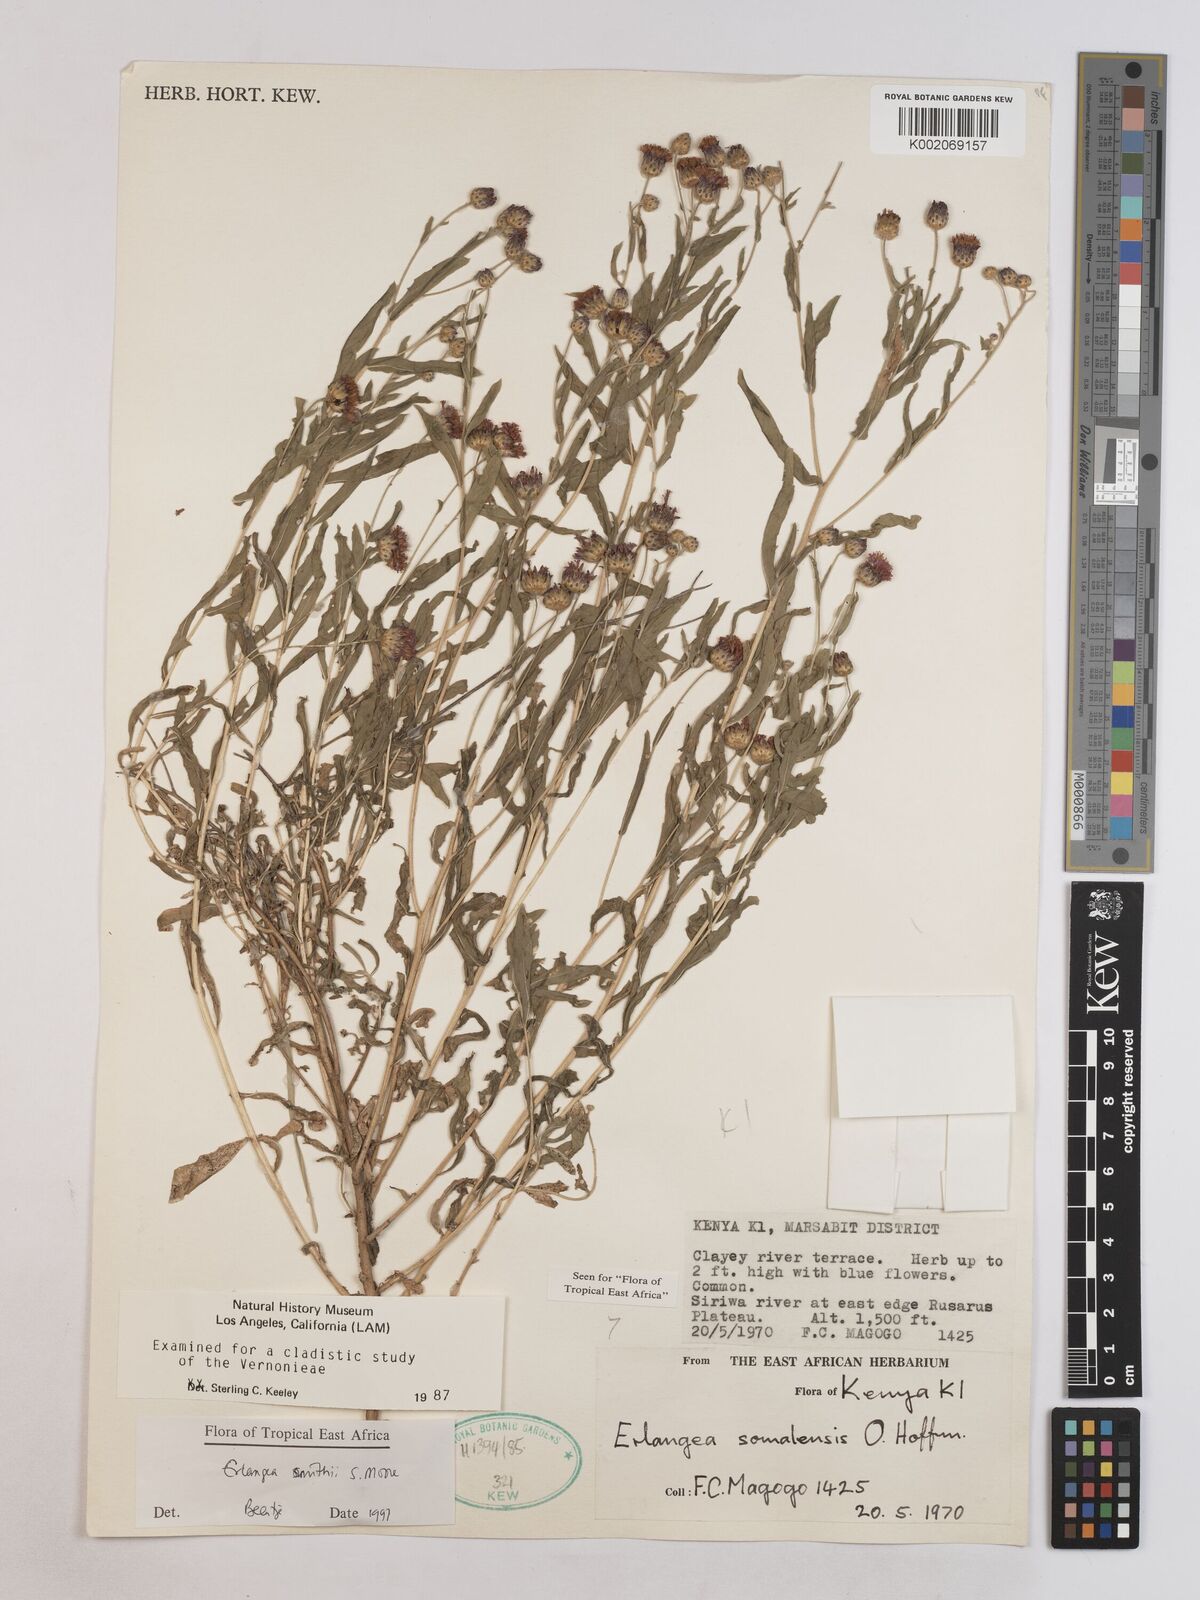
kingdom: Plantae
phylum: Tracheophyta
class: Magnoliopsida
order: Asterales
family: Asteraceae
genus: Erlangea
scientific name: Erlangea smithii
